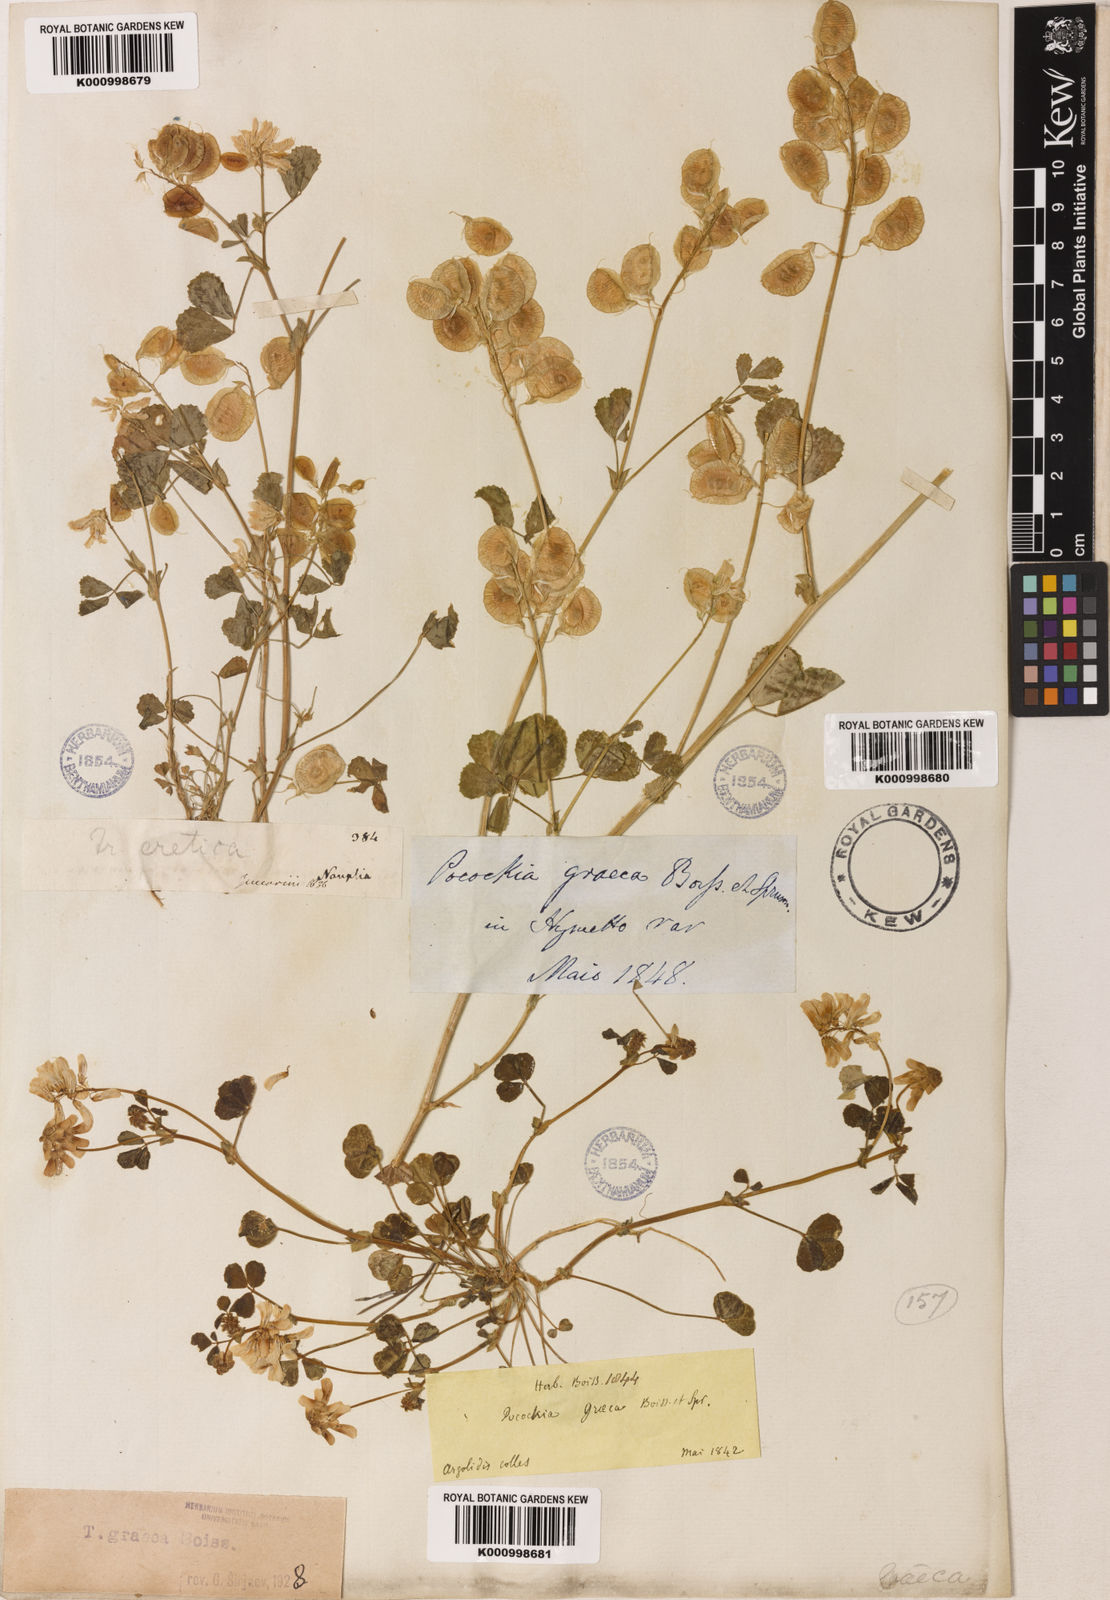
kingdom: Plantae
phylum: Tracheophyta
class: Magnoliopsida
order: Fabales
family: Fabaceae
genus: Trigonella
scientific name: Trigonella graeca
